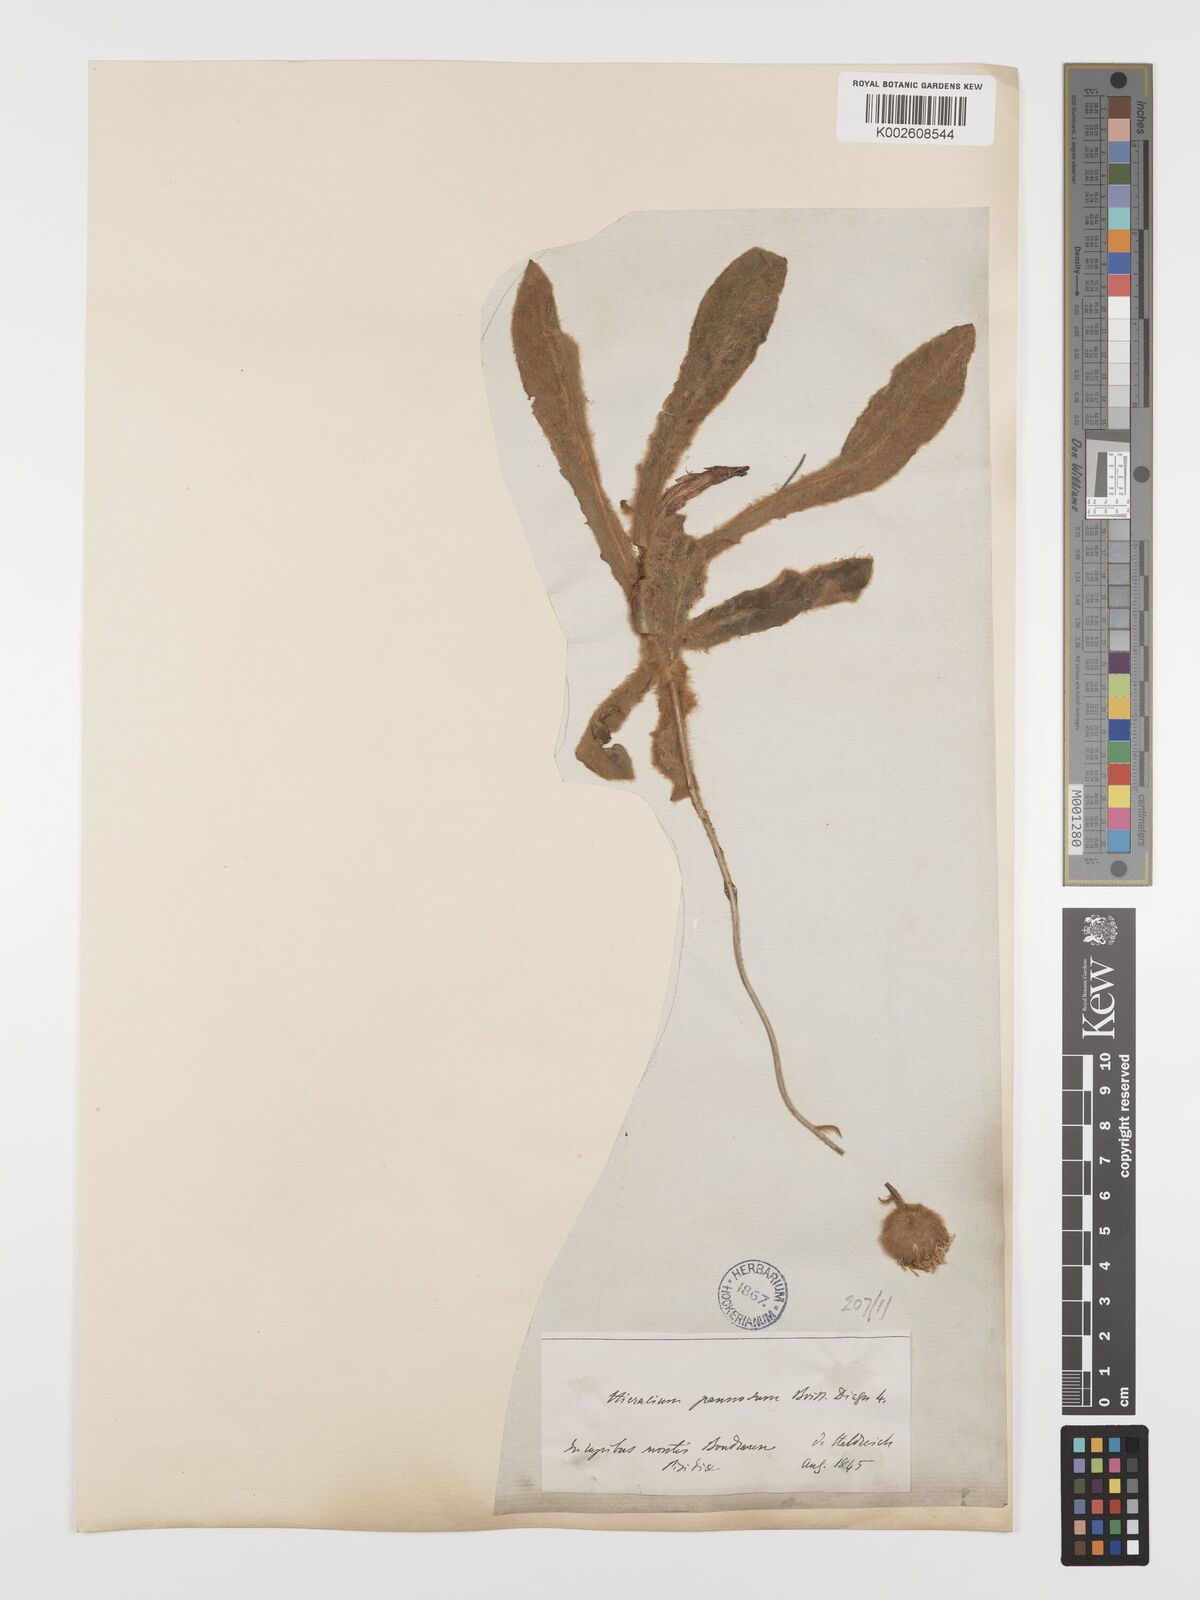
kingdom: Plantae
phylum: Tracheophyta
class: Magnoliopsida
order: Asterales
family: Asteraceae
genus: Hieracium
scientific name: Hieracium pannosum
